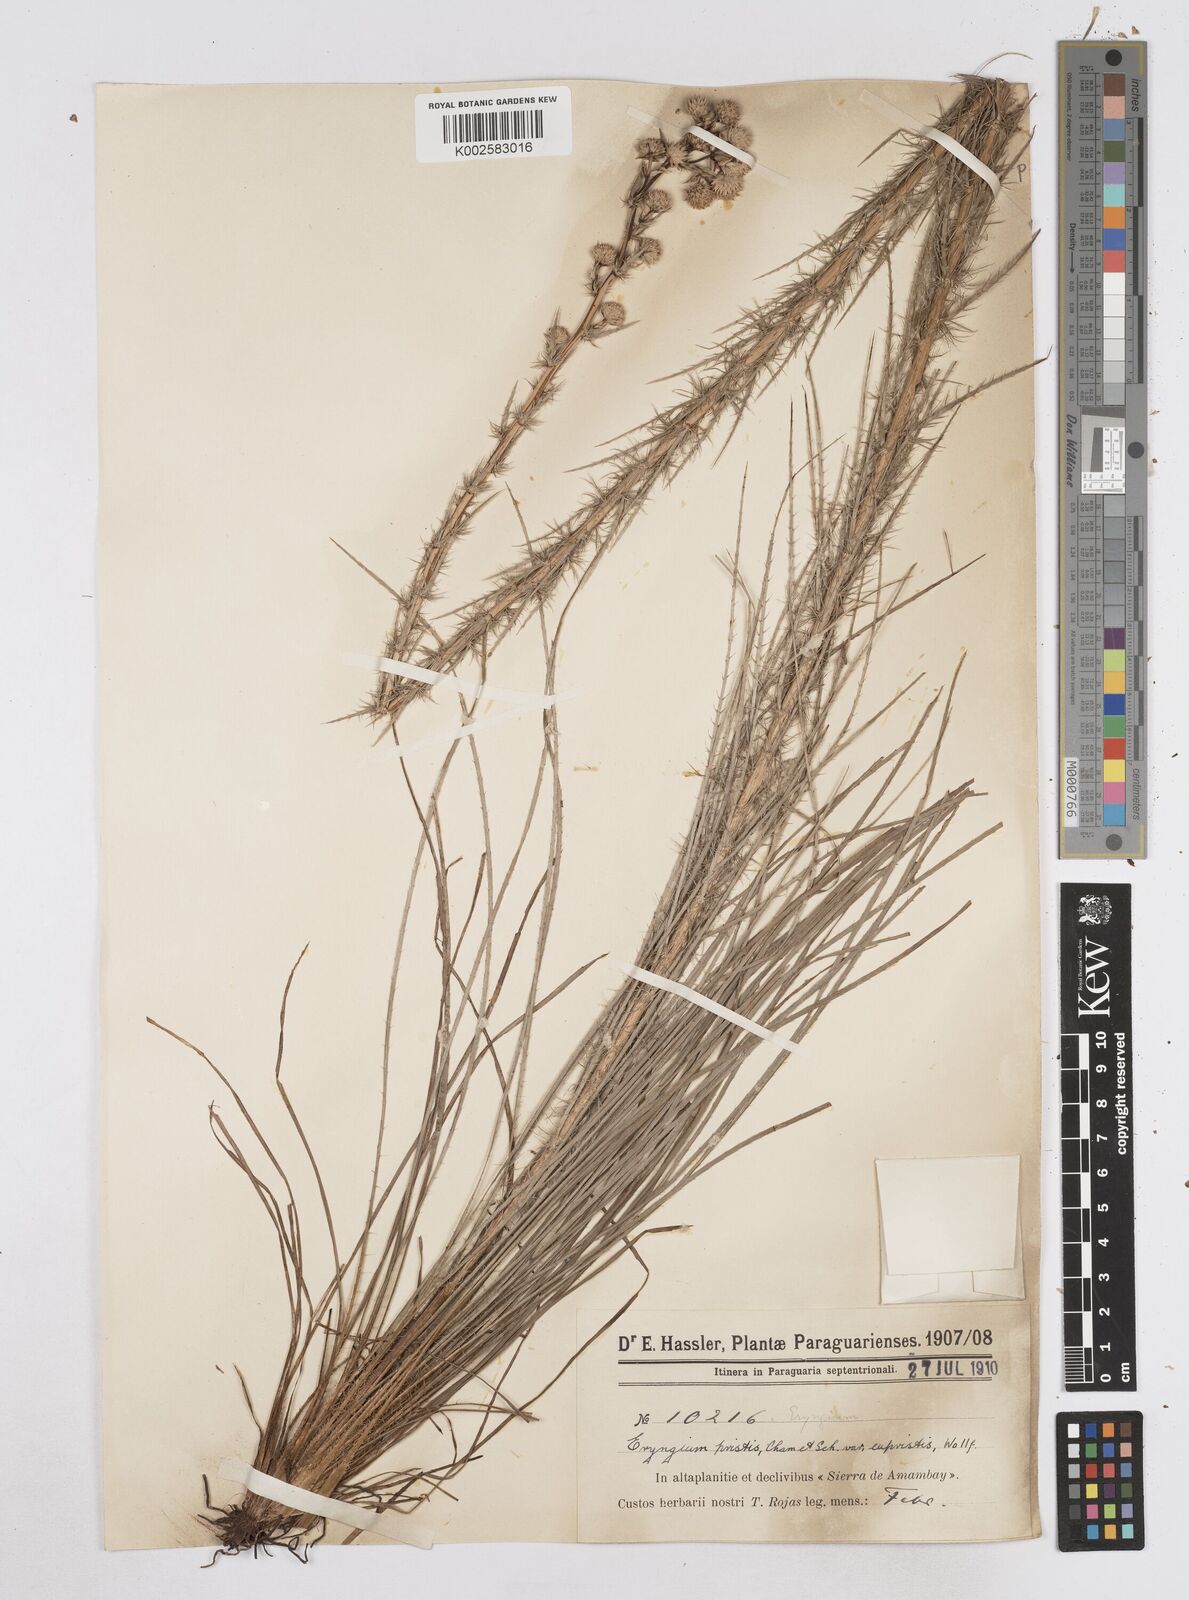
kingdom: Plantae
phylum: Tracheophyta
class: Magnoliopsida
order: Apiales
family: Apiaceae
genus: Eryngium
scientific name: Eryngium pristis
